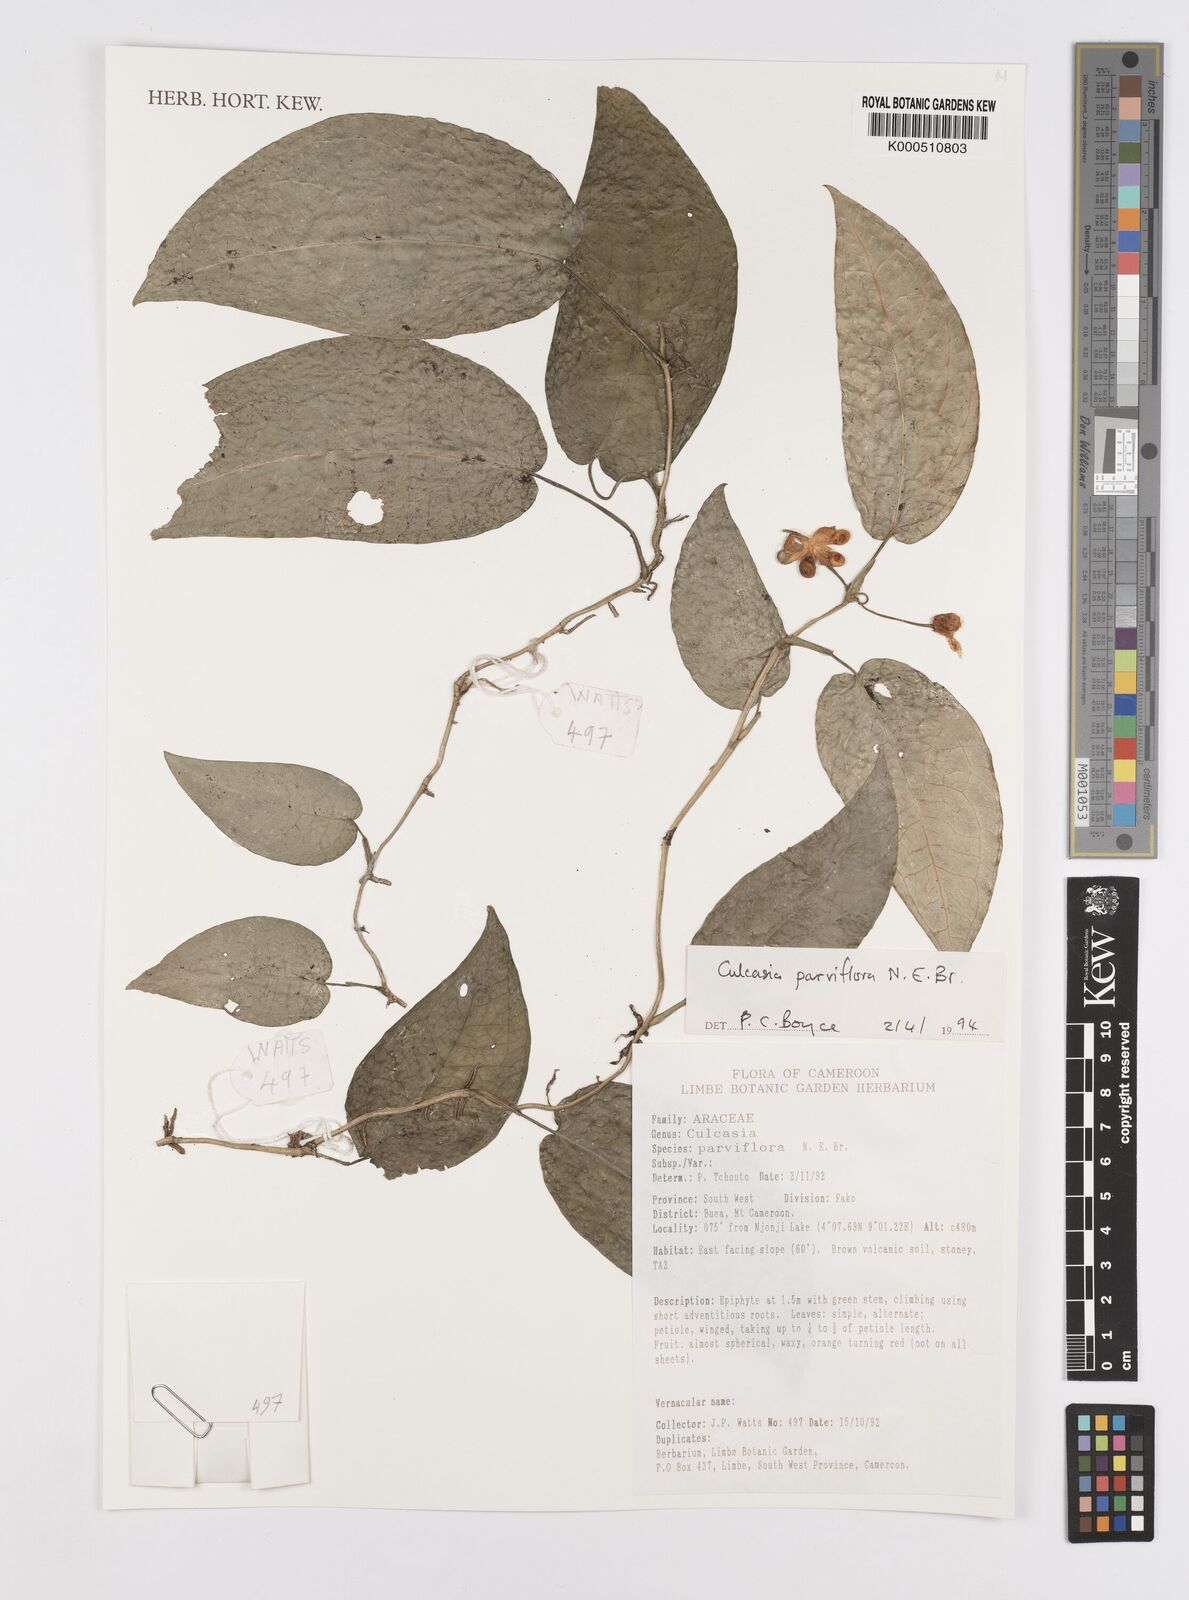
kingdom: Plantae
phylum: Tracheophyta
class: Liliopsida
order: Alismatales
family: Araceae
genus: Culcasia
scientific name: Culcasia parviflora
